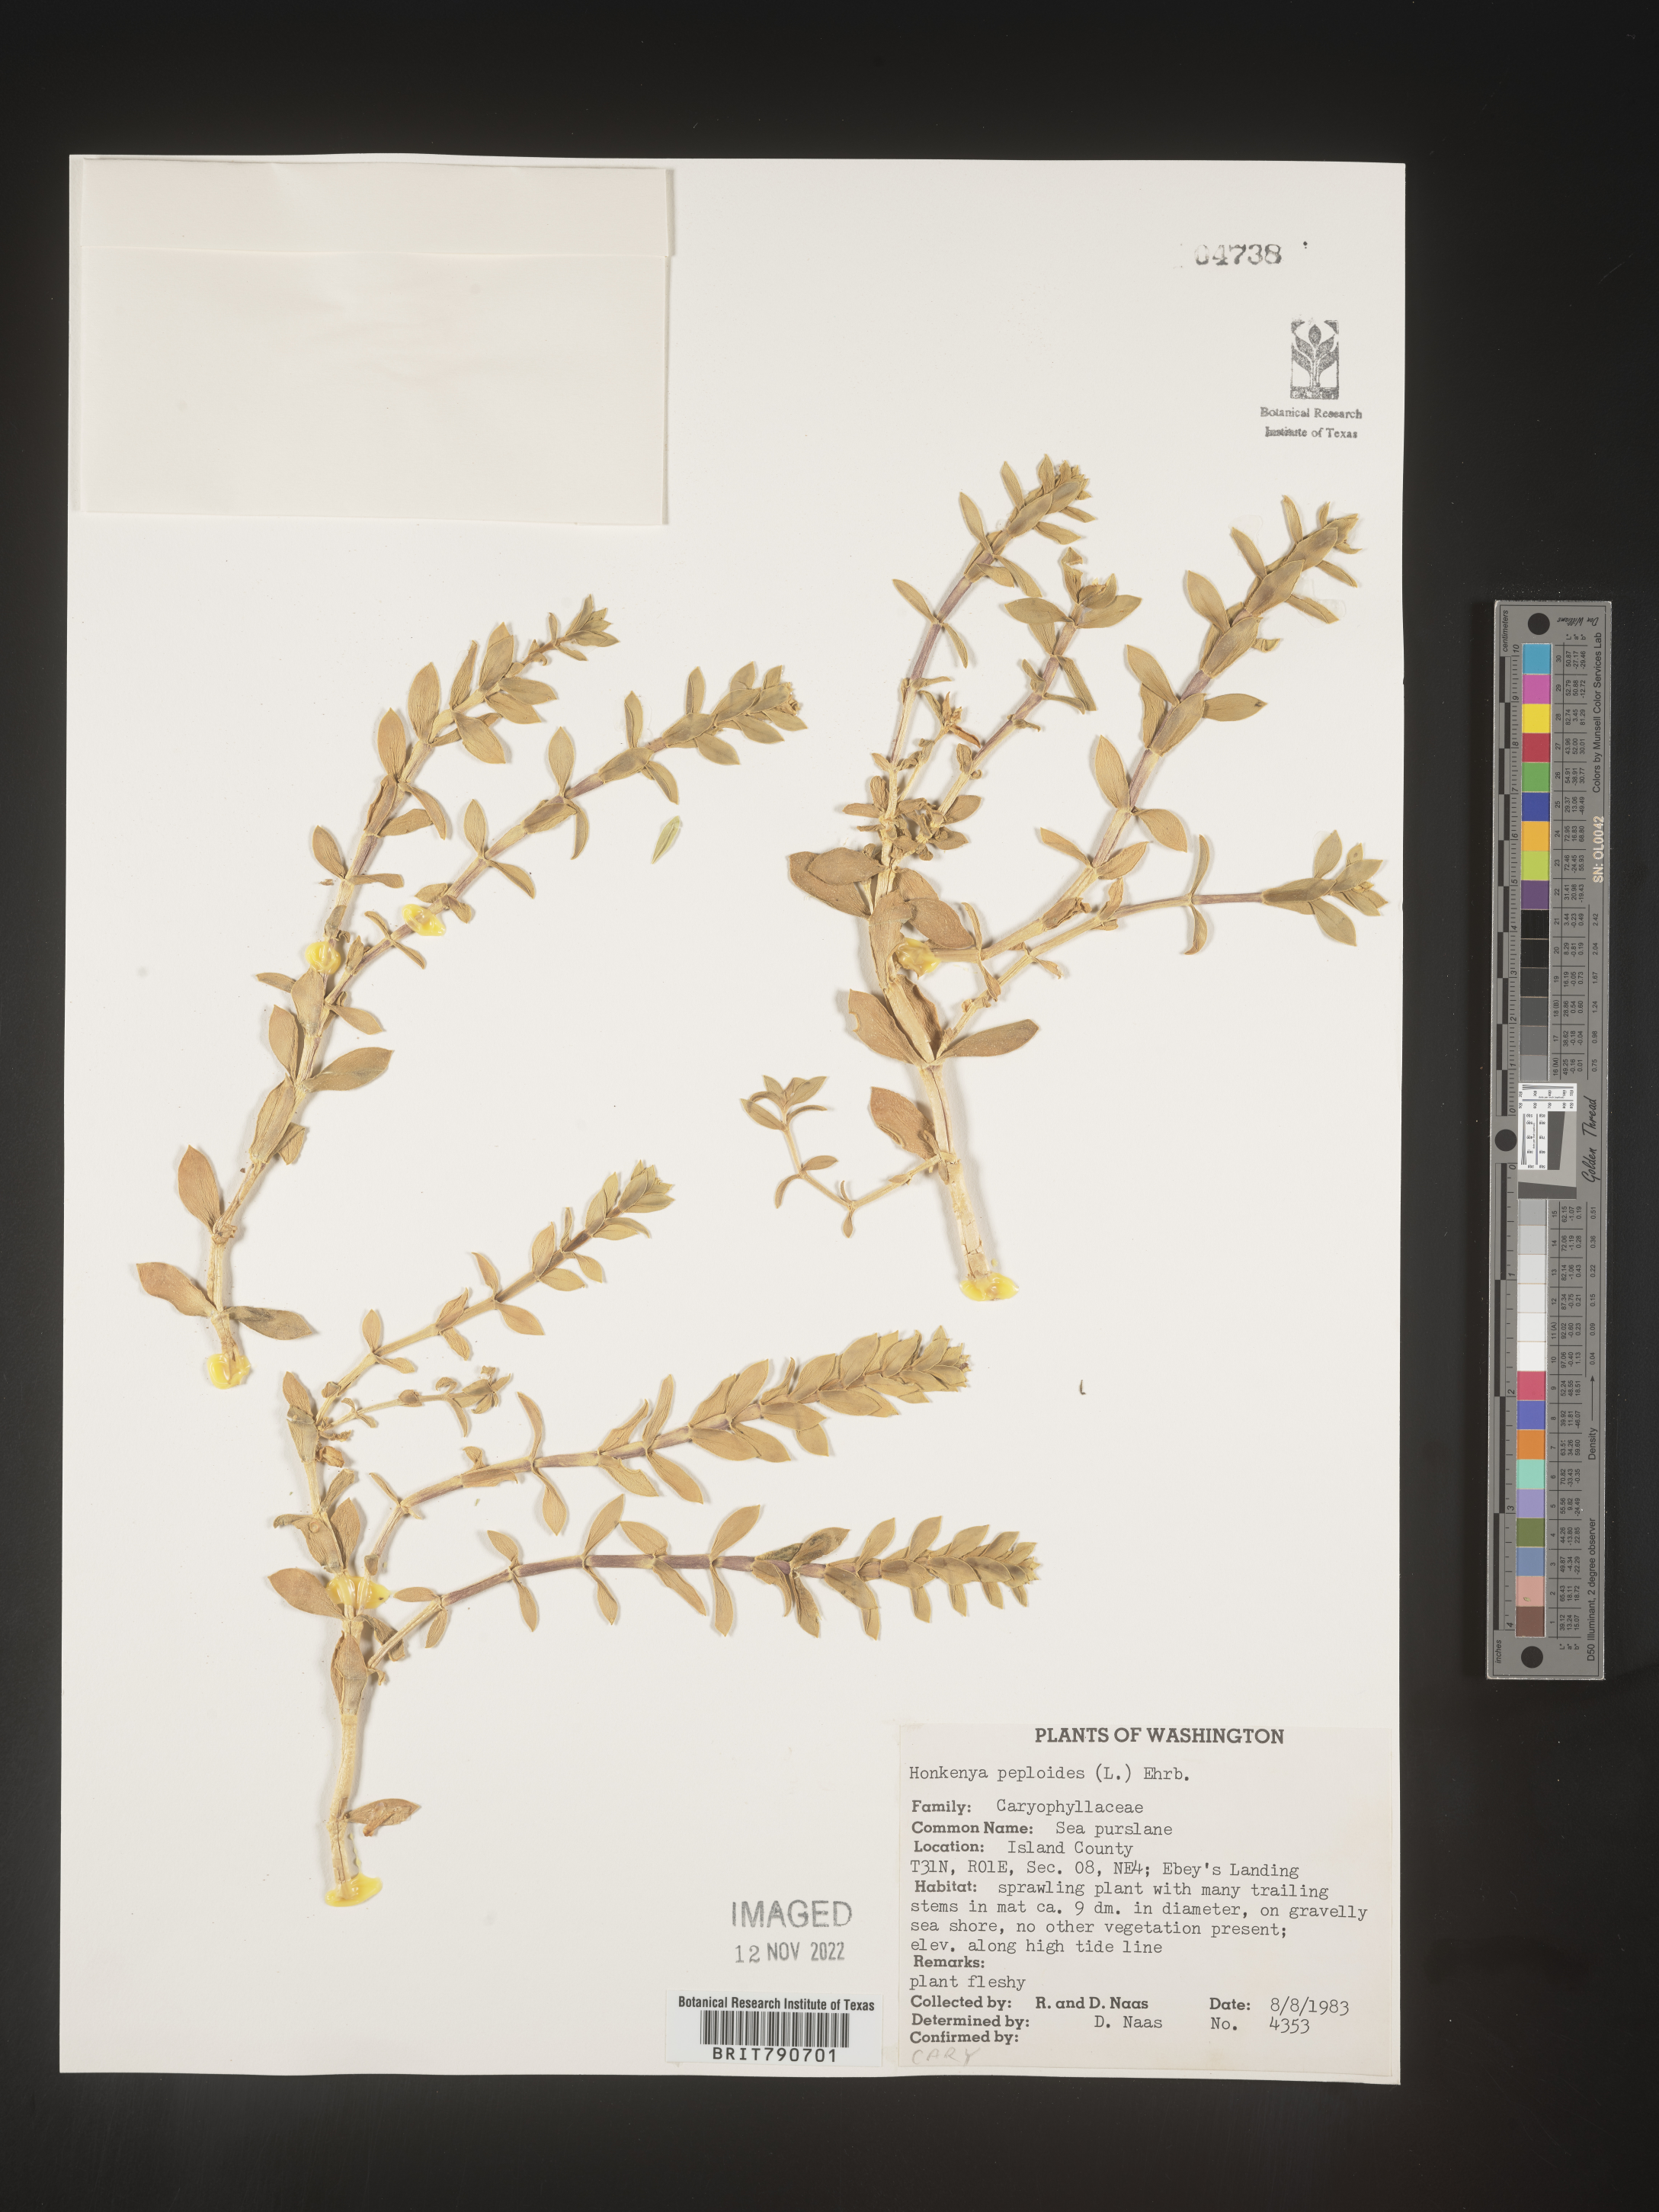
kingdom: Plantae
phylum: Tracheophyta
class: Magnoliopsida
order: Malvales
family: Malvaceae
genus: Clappertonia
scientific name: Clappertonia
